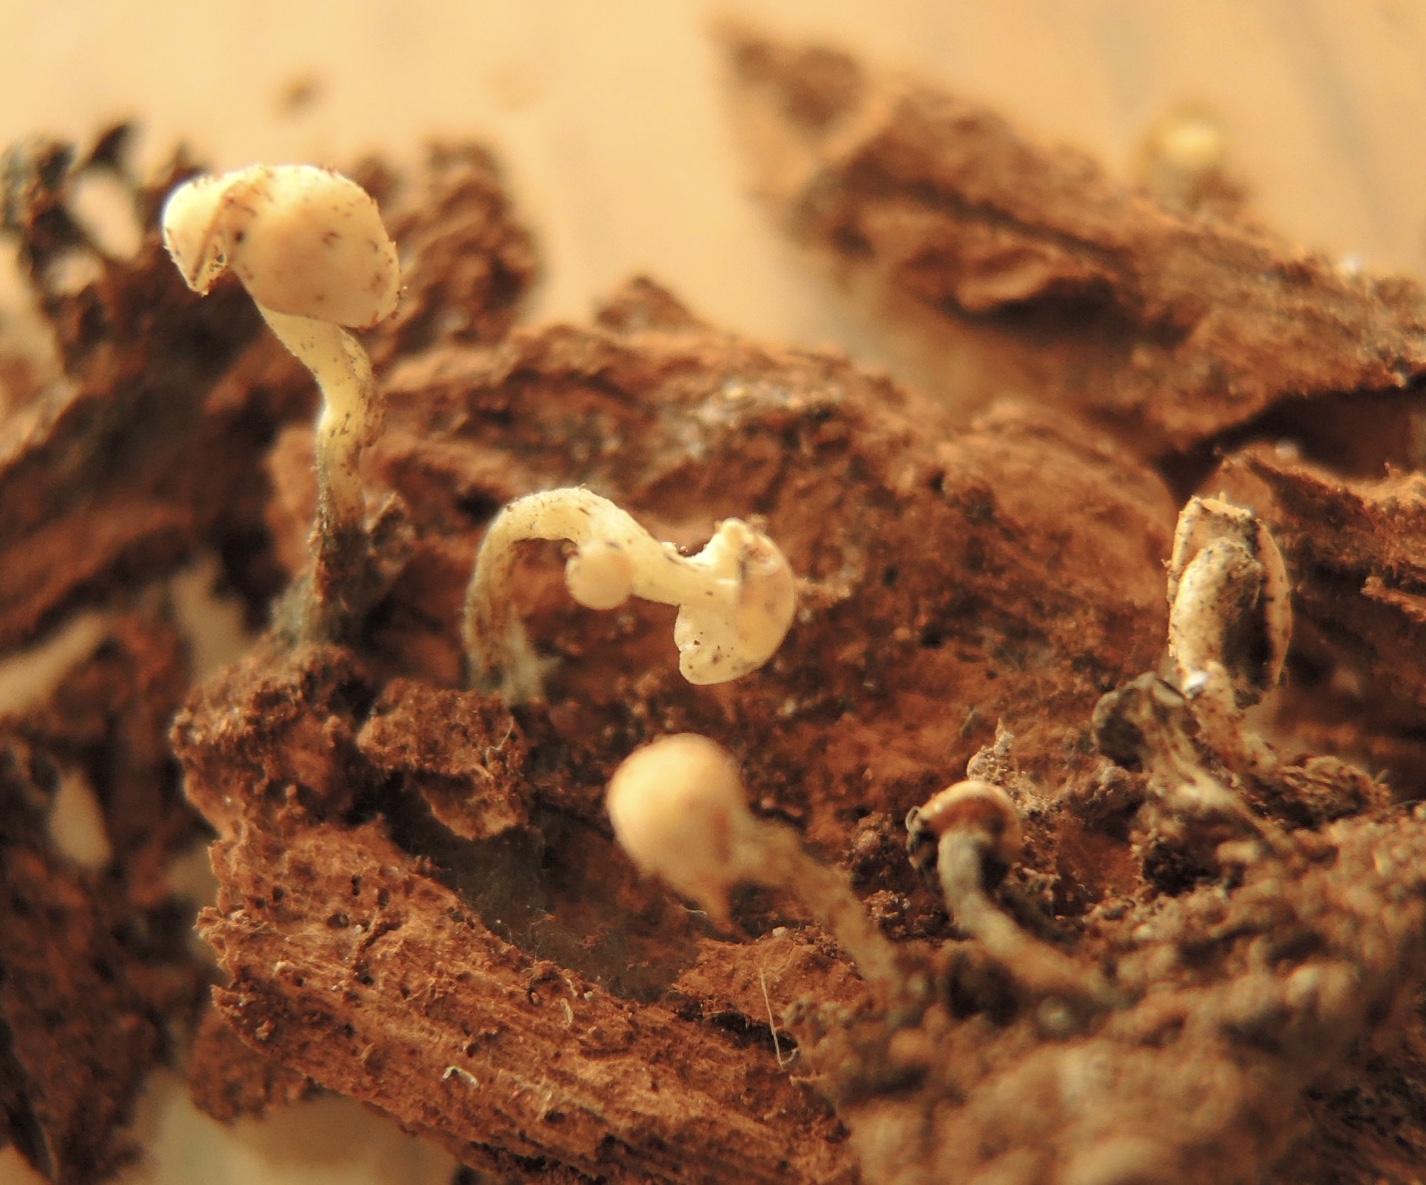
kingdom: Fungi
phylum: Ascomycota
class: Leotiomycetes
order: Helotiales
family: Tricladiaceae
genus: Cudoniella
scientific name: Cudoniella acicularis
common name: ege-dyndskive
